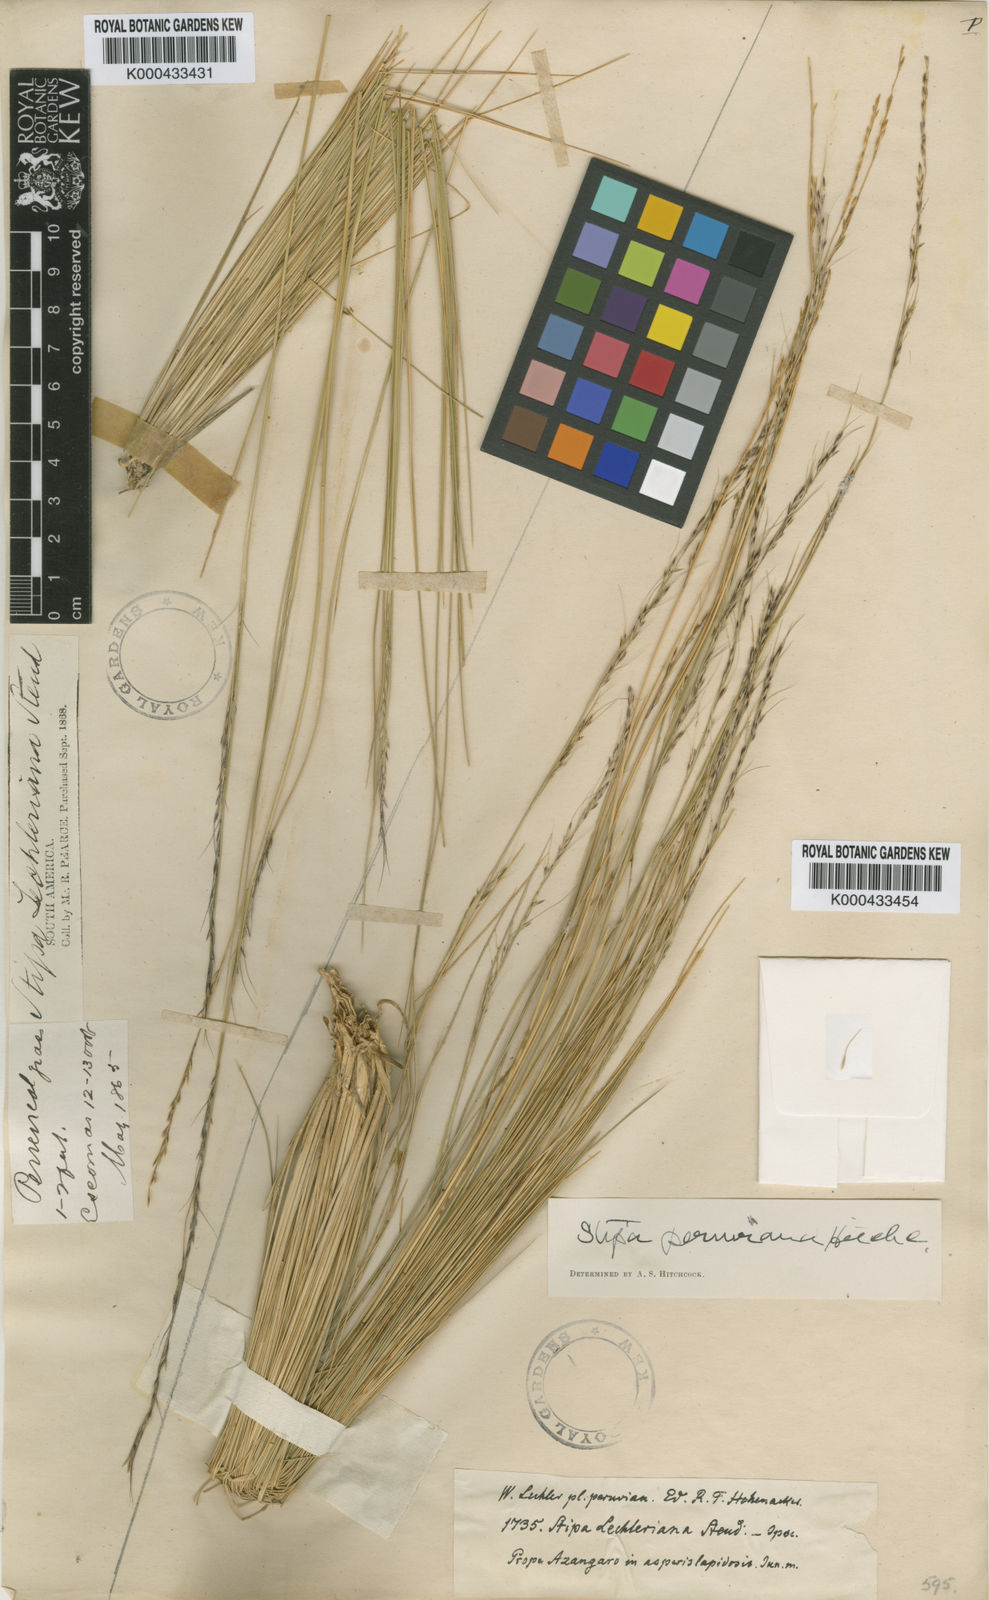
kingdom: Plantae
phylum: Tracheophyta
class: Liliopsida
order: Poales
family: Poaceae
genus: Stipa
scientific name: Stipa rigidiseta
